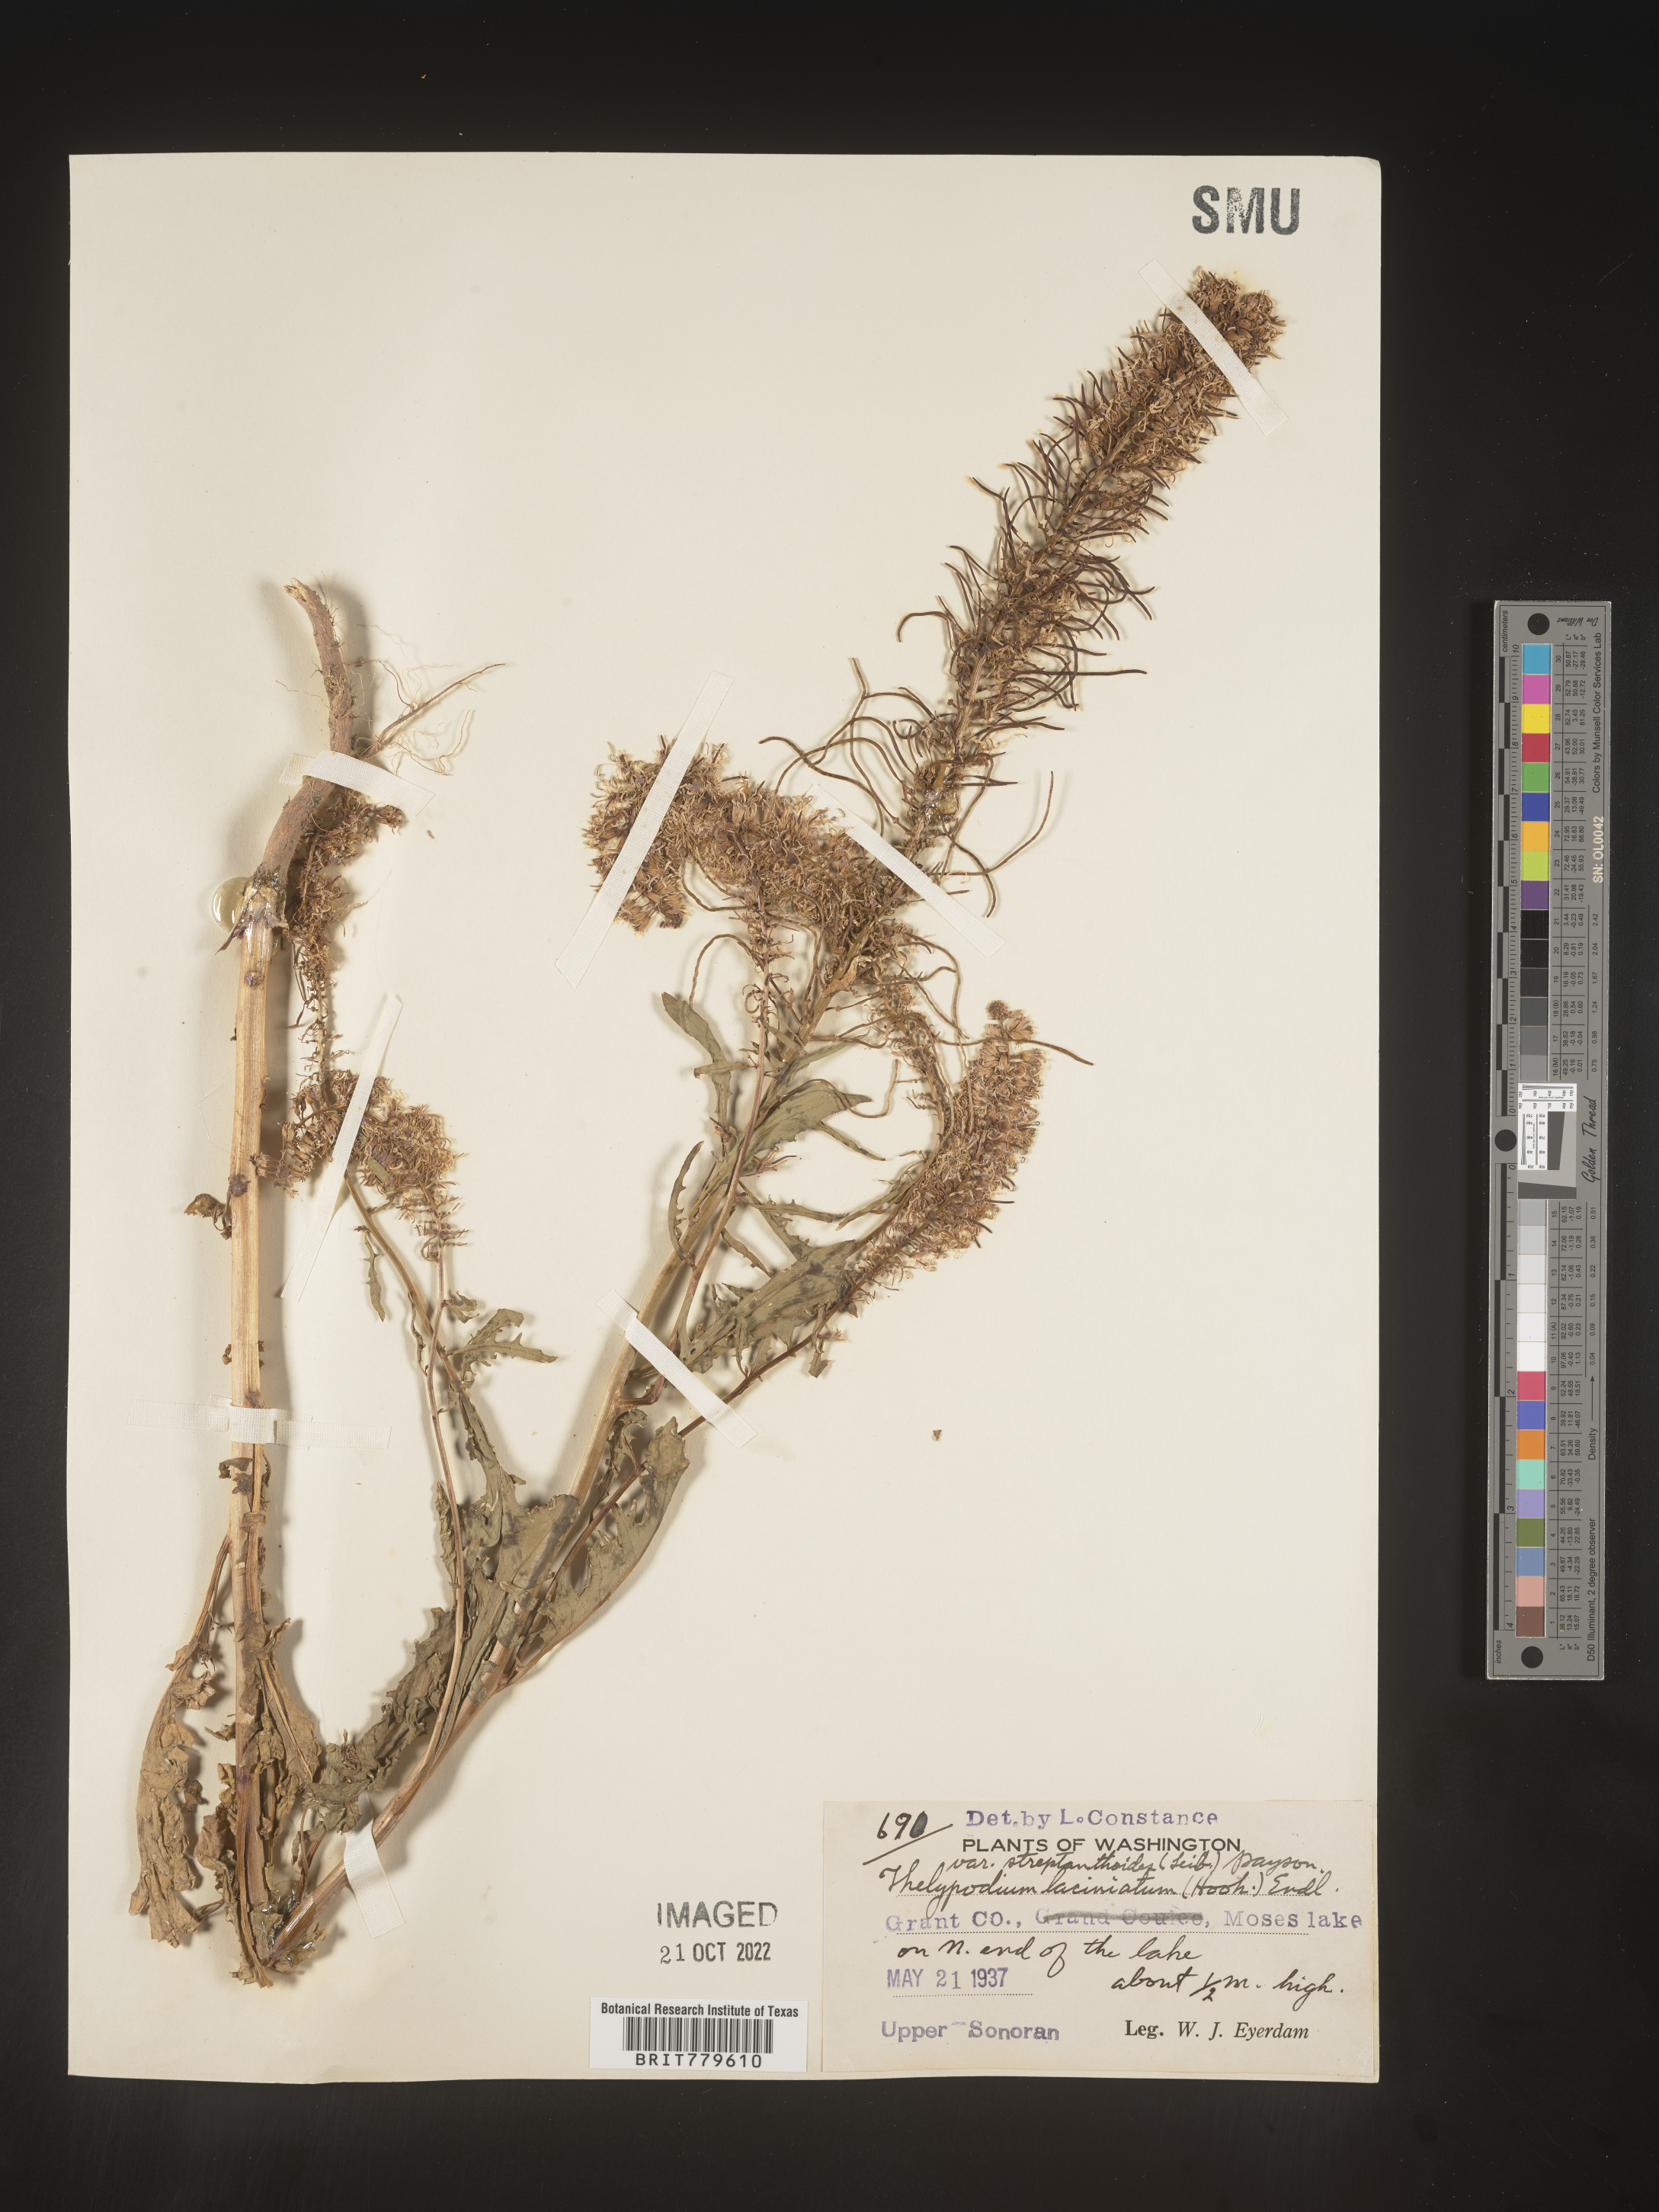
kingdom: Plantae
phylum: Tracheophyta
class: Magnoliopsida
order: Brassicales
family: Brassicaceae
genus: Thelypodium
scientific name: Thelypodium
